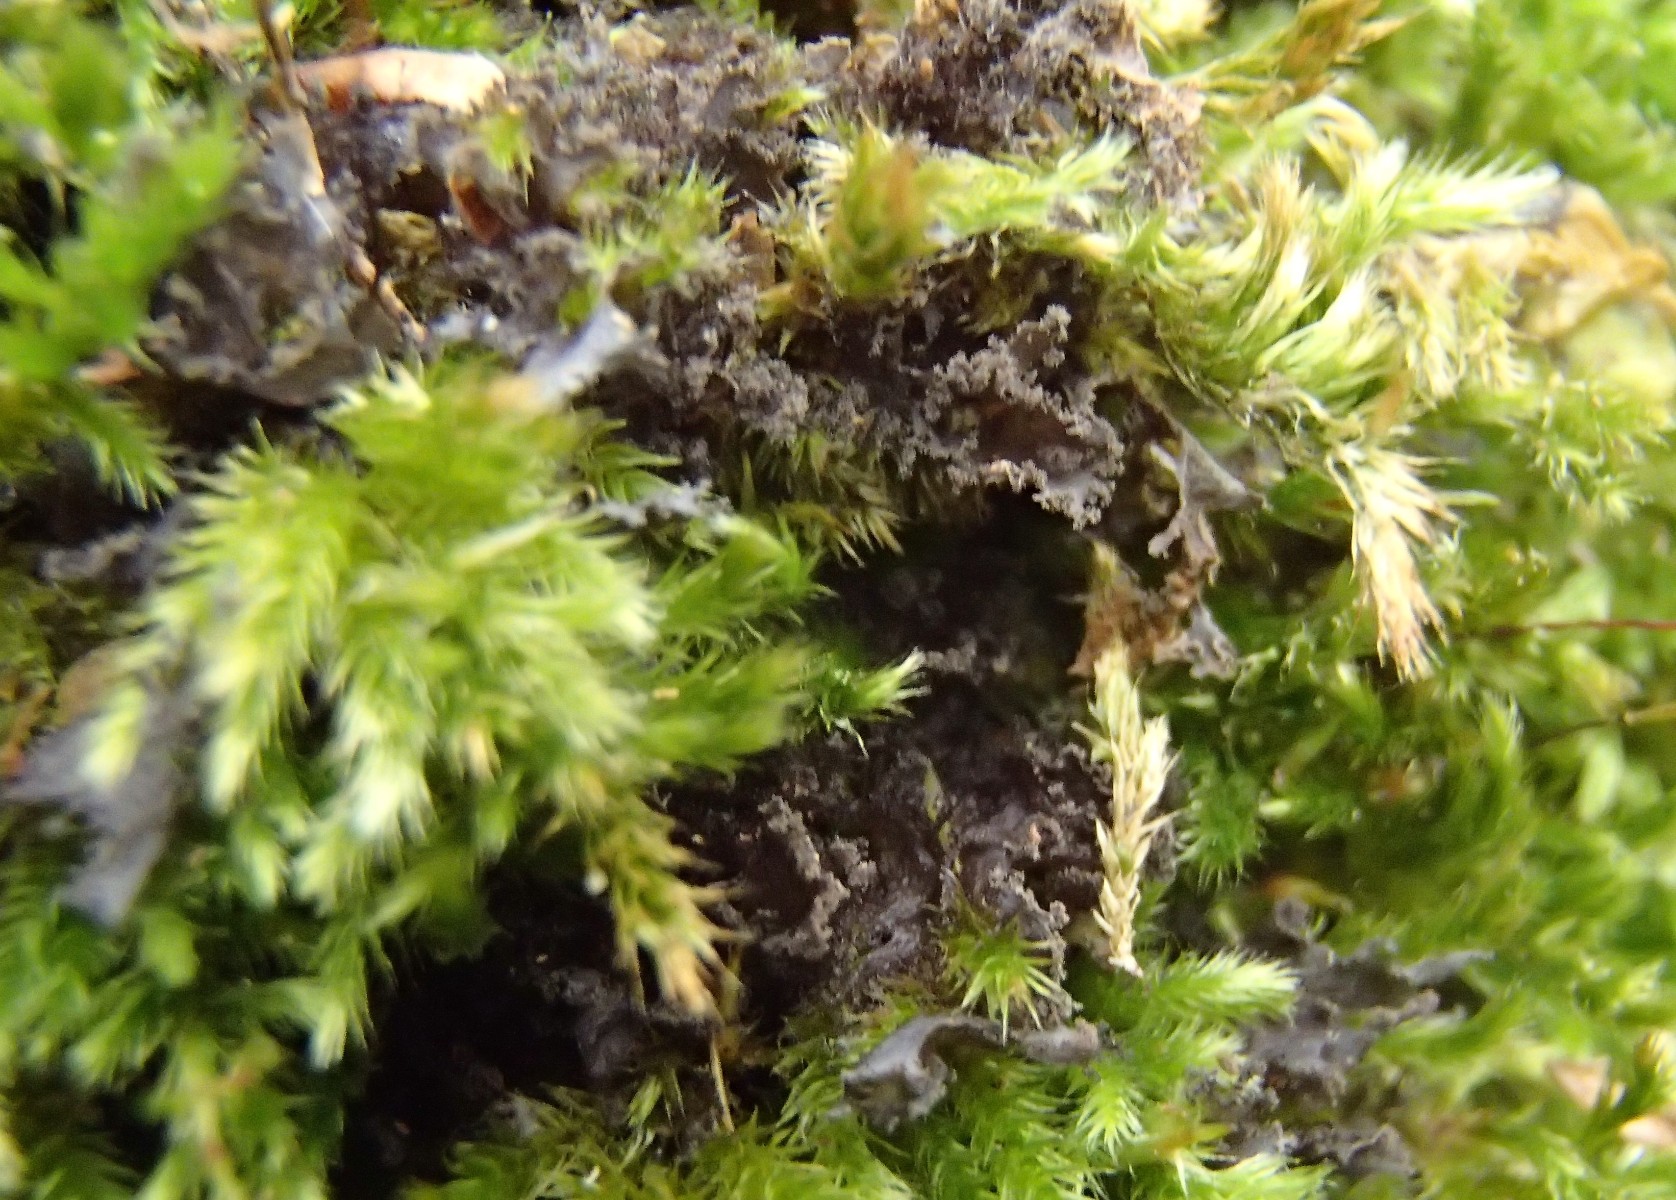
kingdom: Fungi
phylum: Ascomycota
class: Lecanoromycetes
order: Peltigerales
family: Collemataceae
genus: Scytinium
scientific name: Scytinium lichenoides
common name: frynset hindelav
